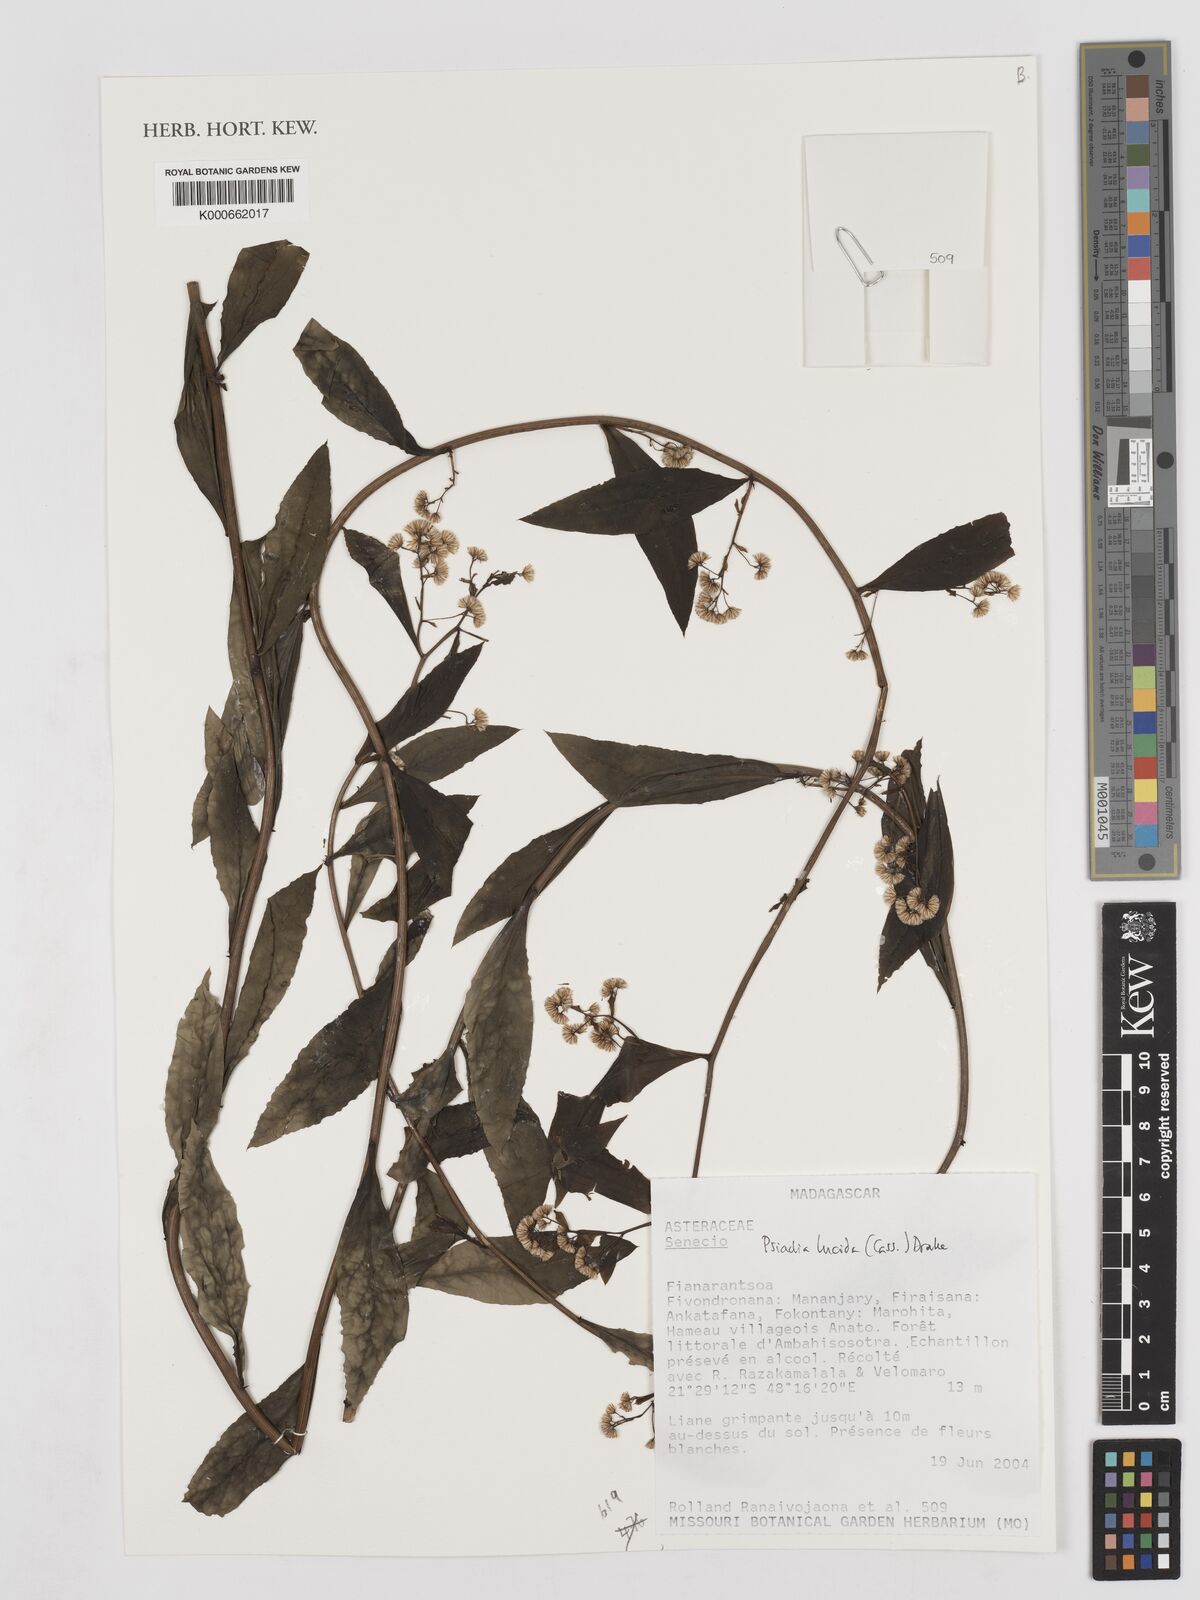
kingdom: Plantae
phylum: Tracheophyta
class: Magnoliopsida
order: Asterales
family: Asteraceae
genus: Psiadia
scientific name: Psiadia lucida
